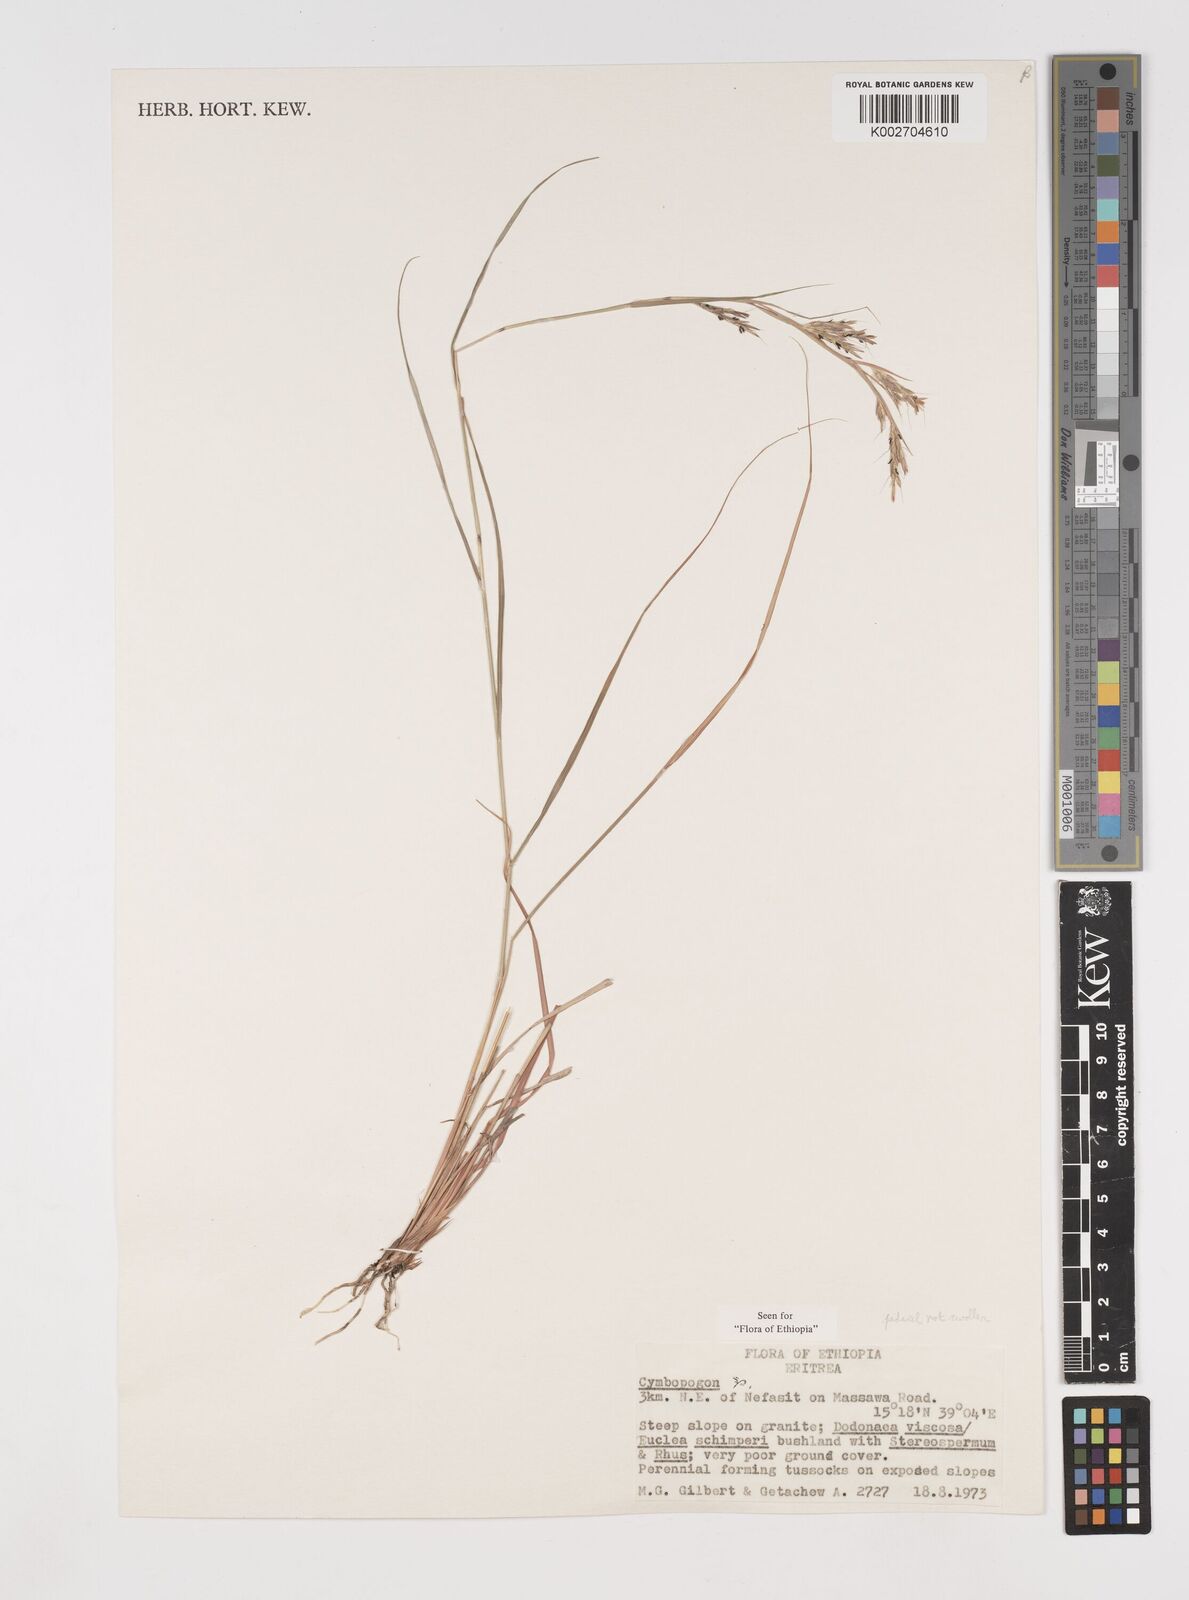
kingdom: Plantae
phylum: Tracheophyta
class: Liliopsida
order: Poales
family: Poaceae
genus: Cymbopogon
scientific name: Cymbopogon pospischilii
